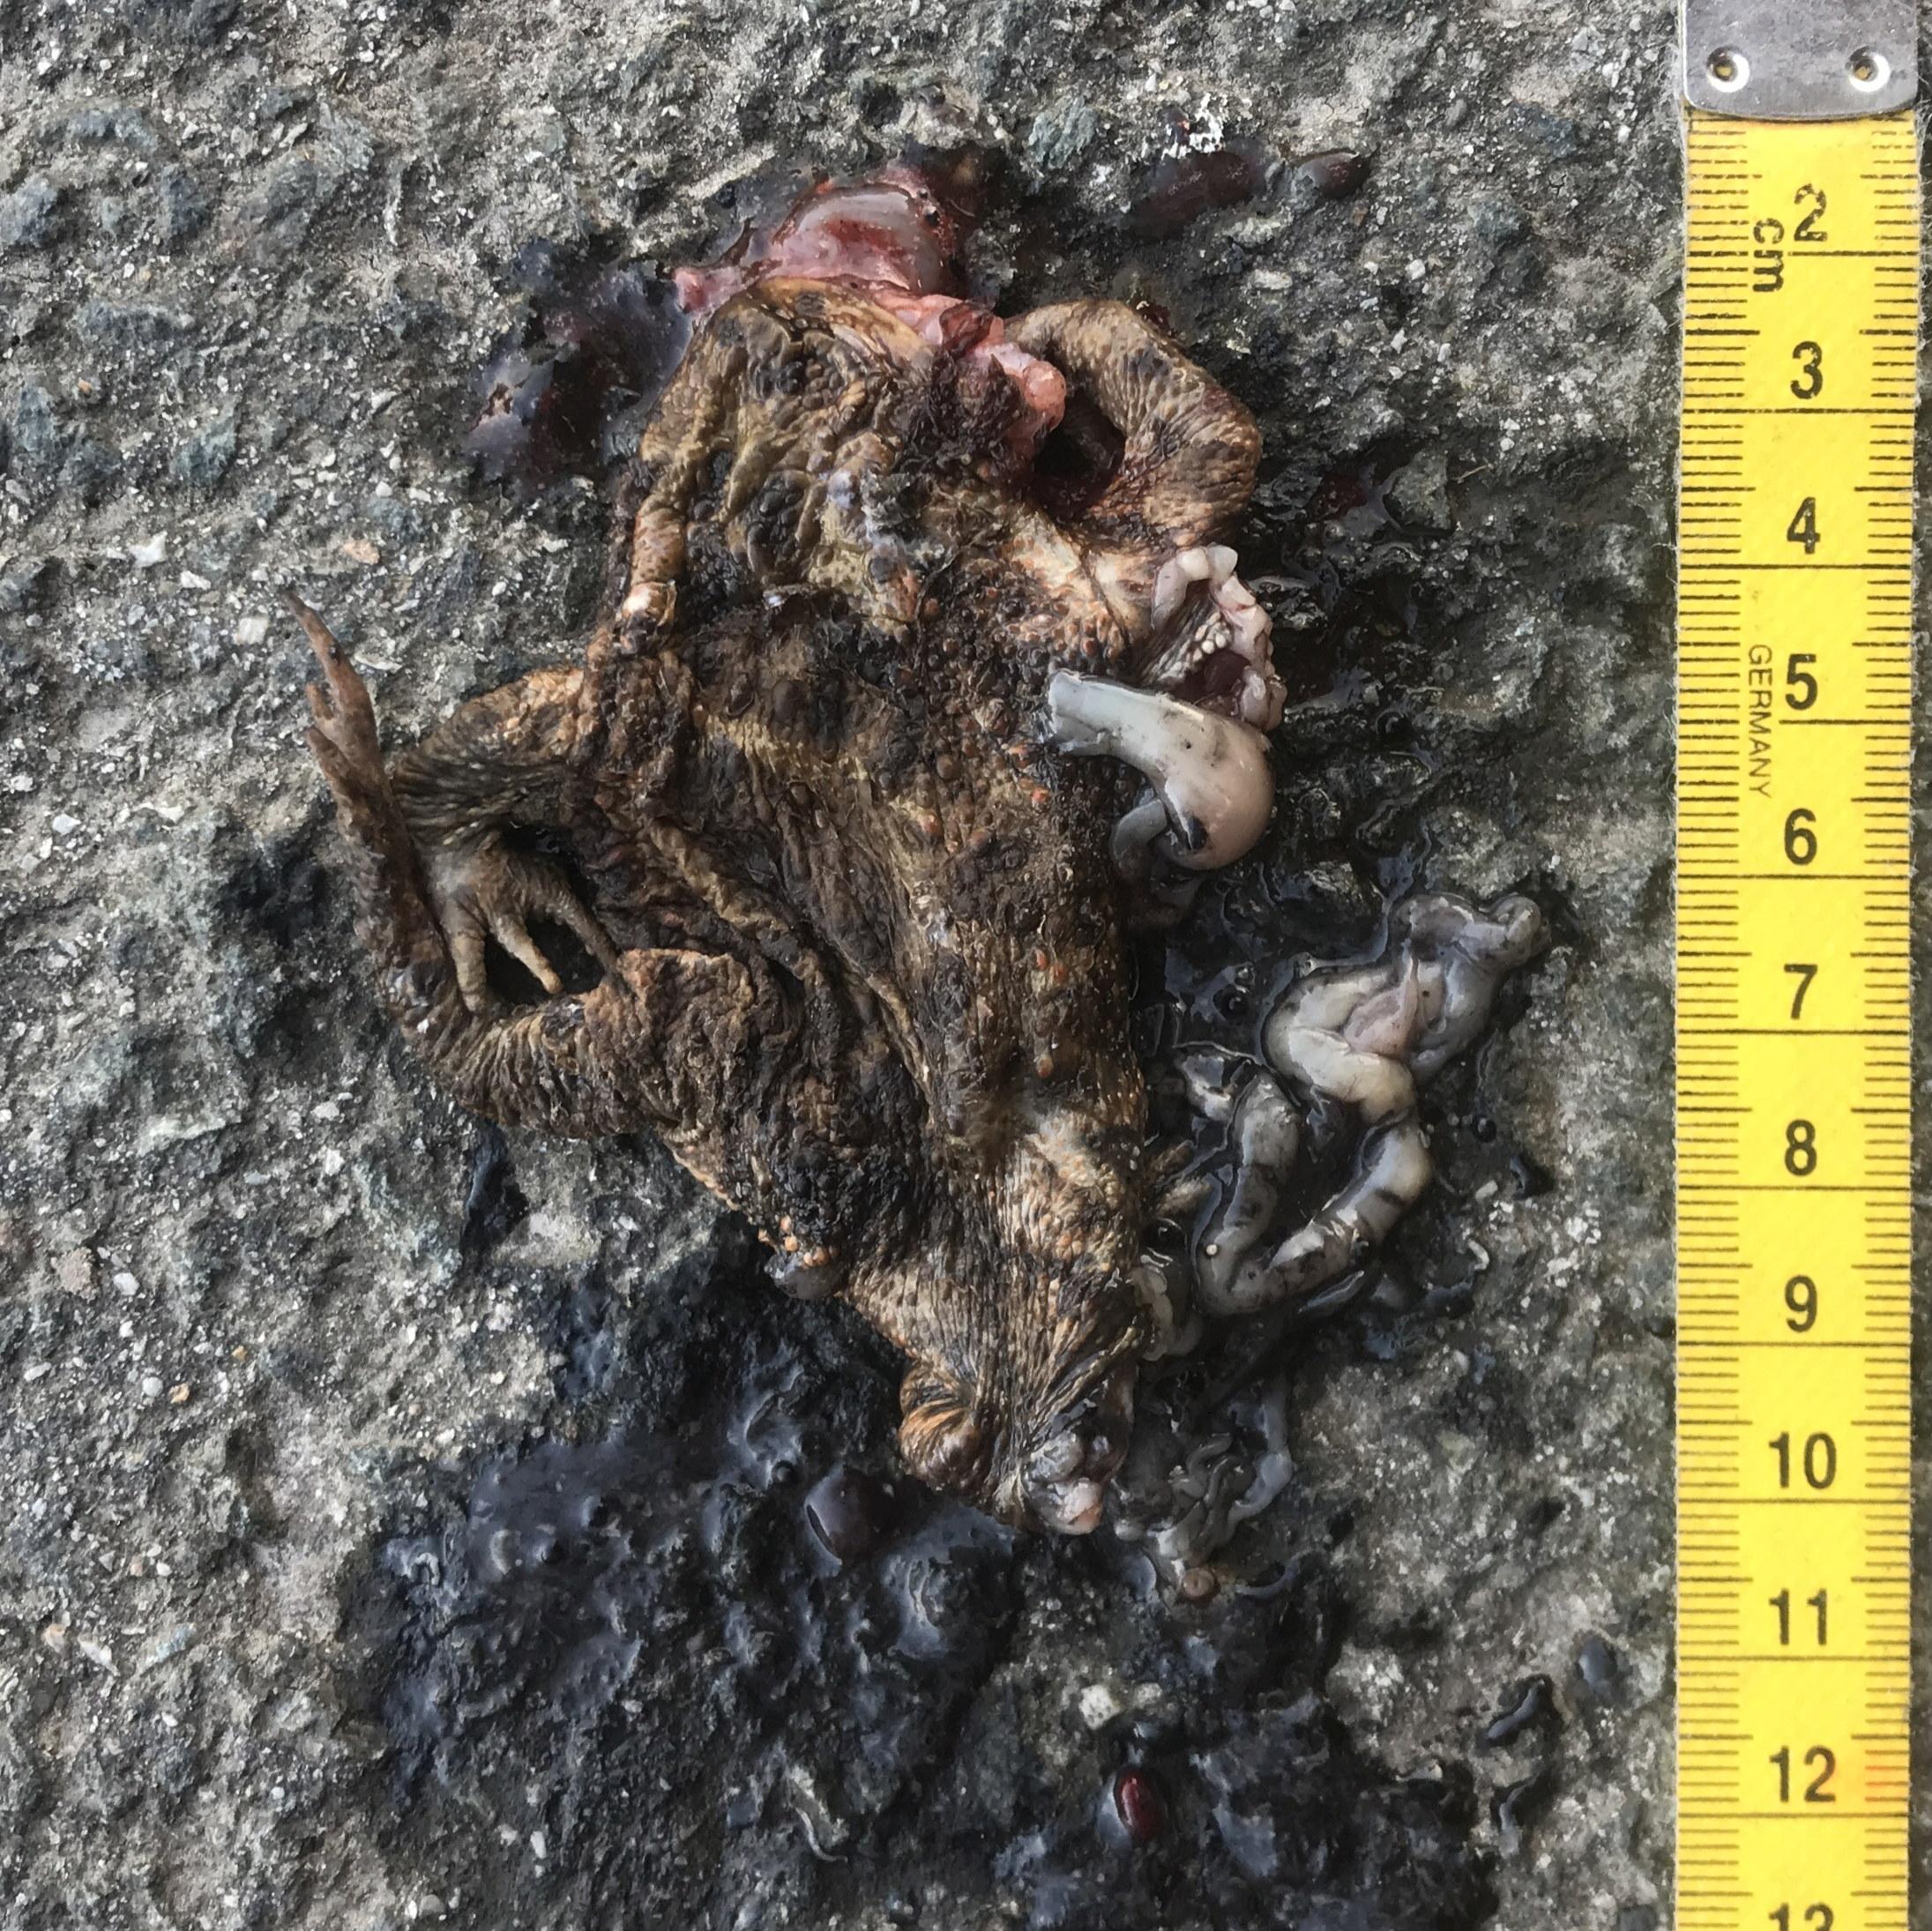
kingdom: Animalia
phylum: Chordata
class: Amphibia
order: Anura
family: Bufonidae
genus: Bufo
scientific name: Bufo bufo
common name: Common toad
